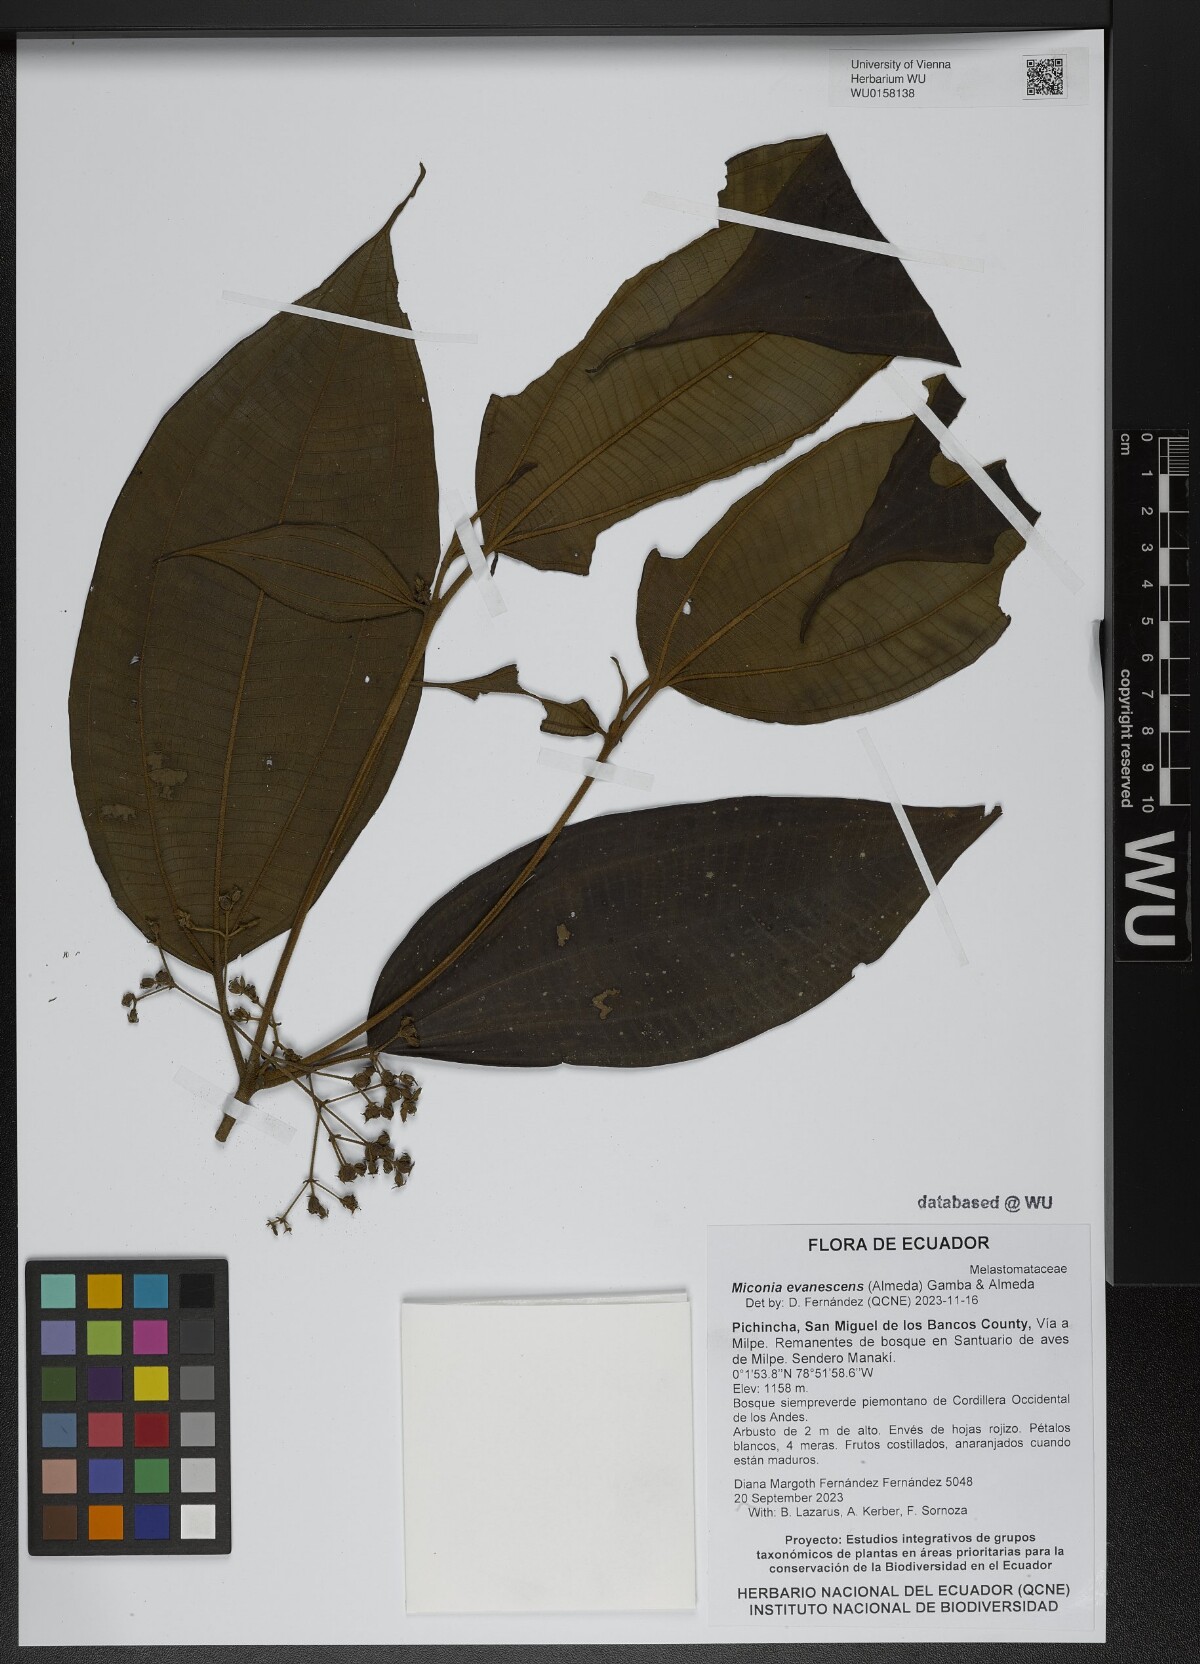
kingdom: Plantae
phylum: Tracheophyta
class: Magnoliopsida
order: Myrtales
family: Melastomataceae
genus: Miconia
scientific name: Miconia evanescens
